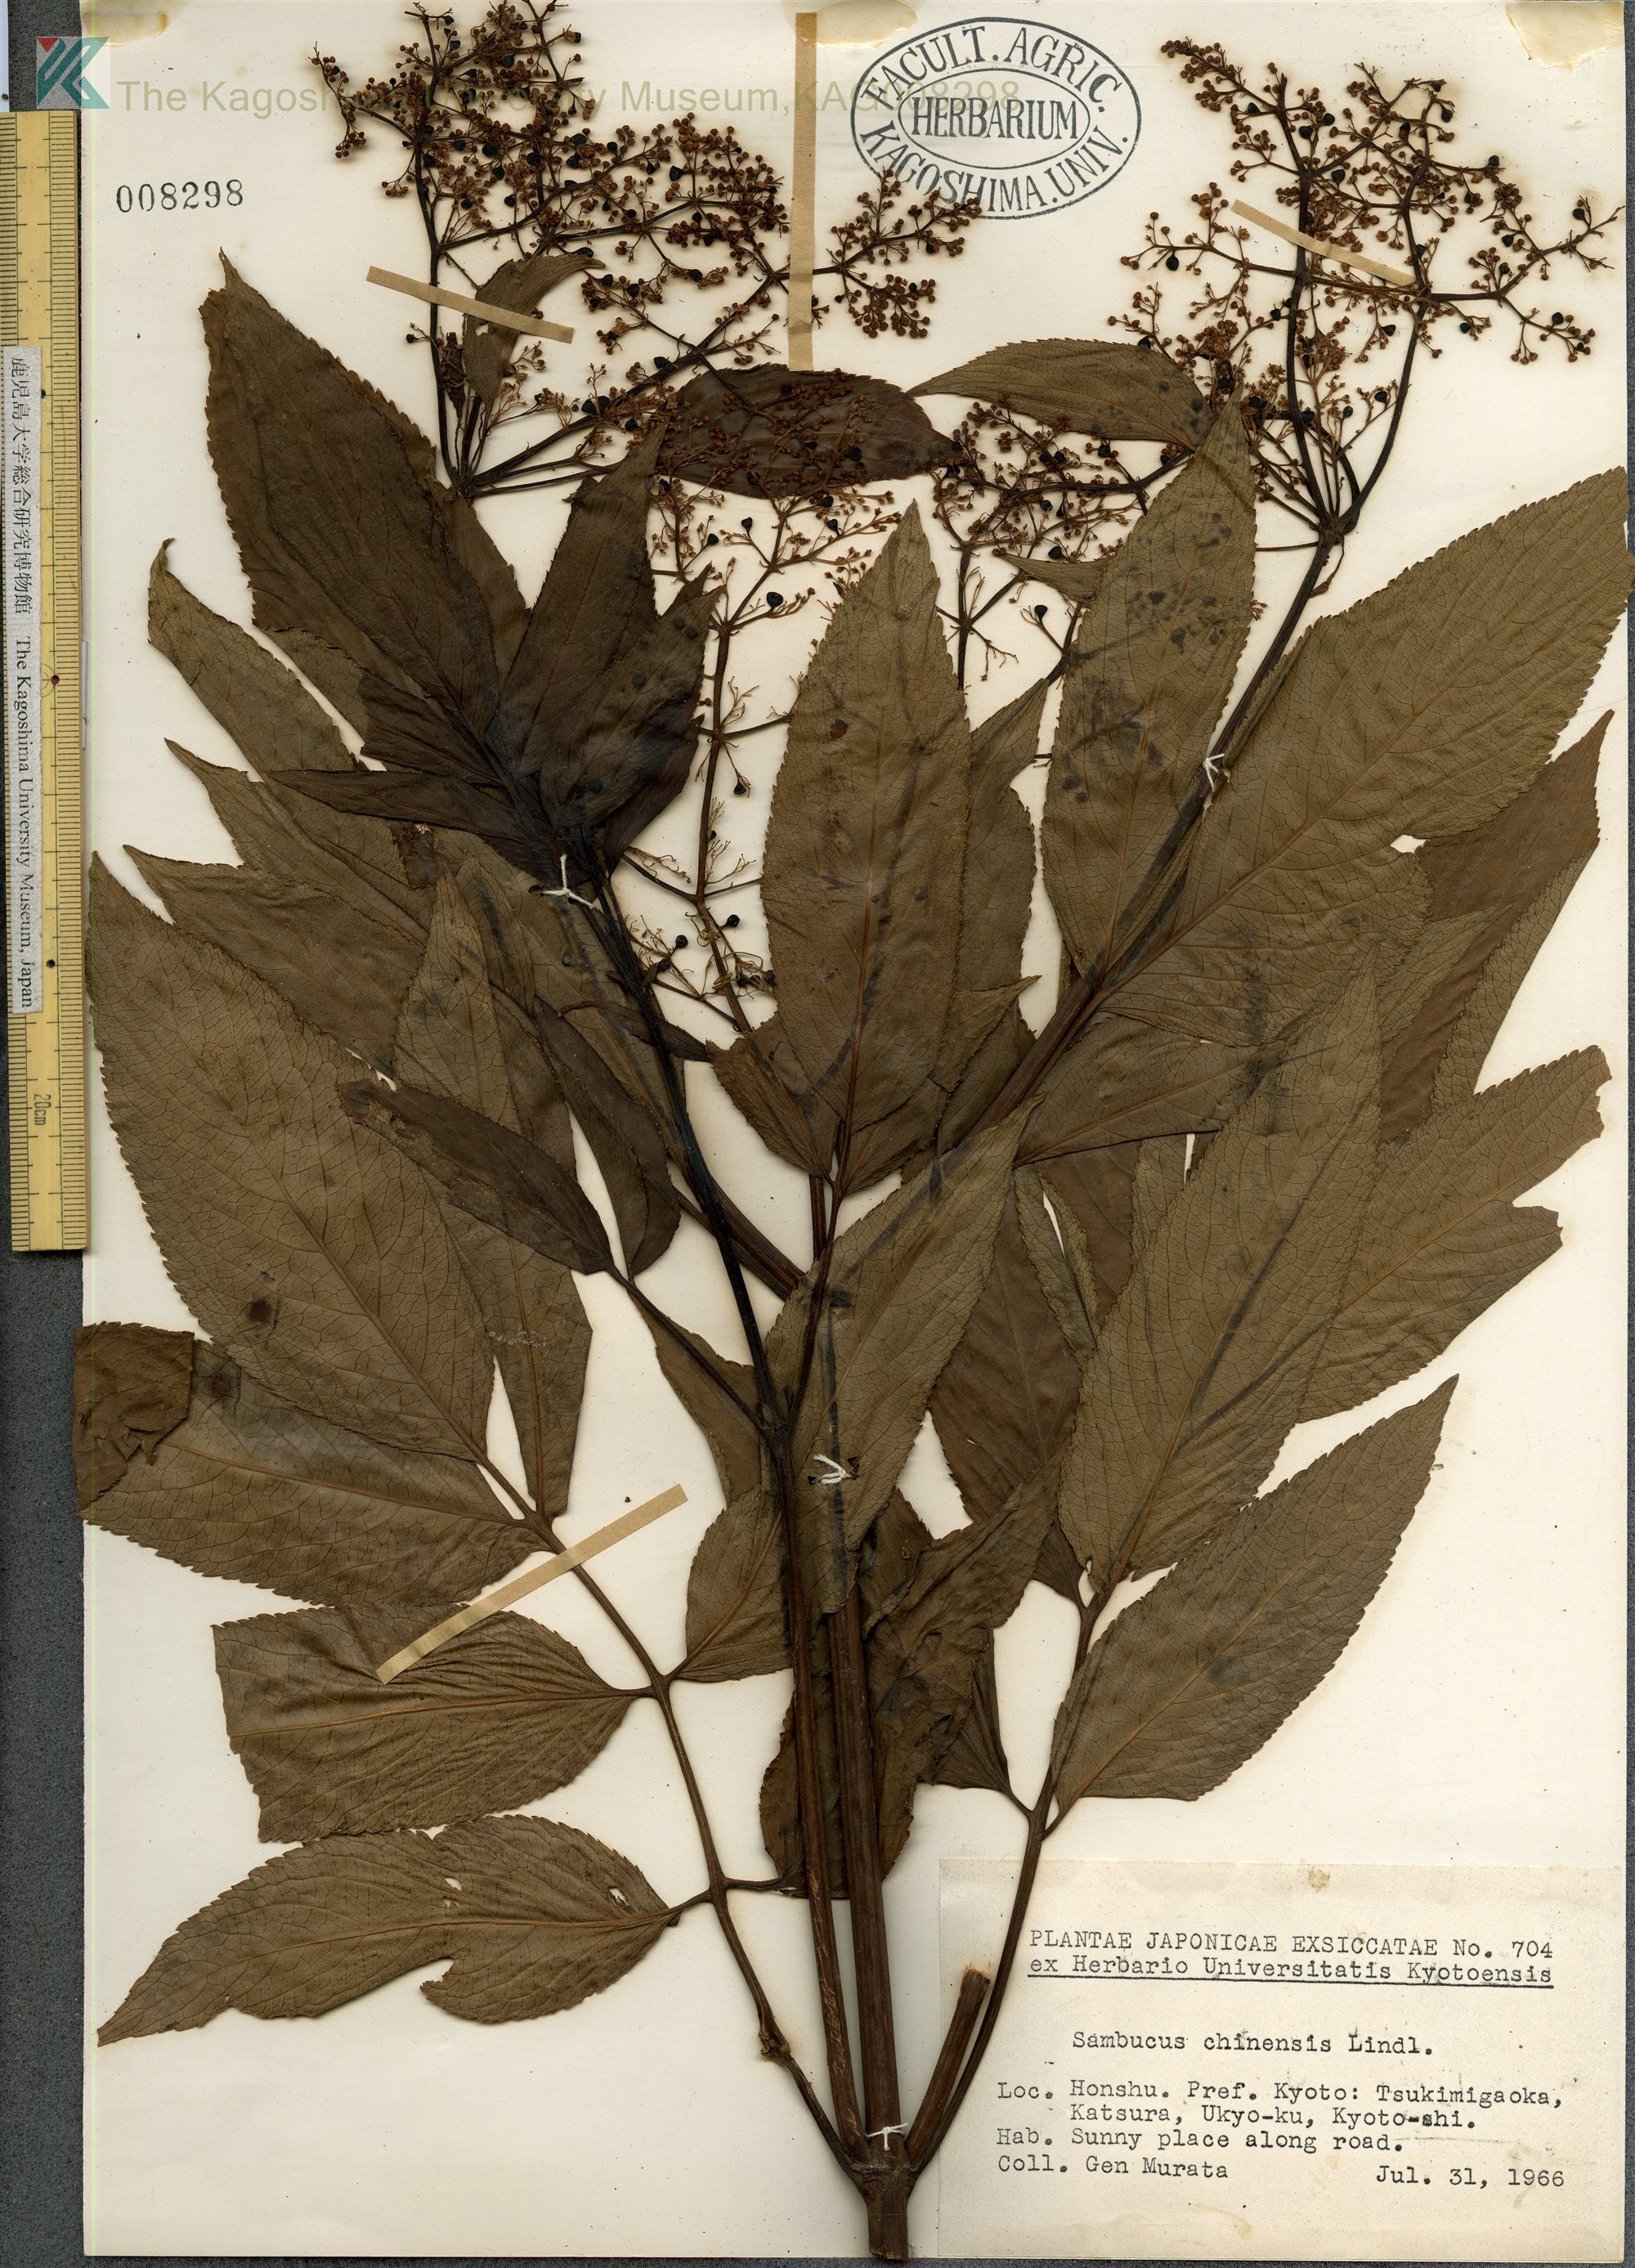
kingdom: Plantae
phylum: Tracheophyta
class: Magnoliopsida
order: Dipsacales
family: Viburnaceae
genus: Sambucus
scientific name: Sambucus javanica
